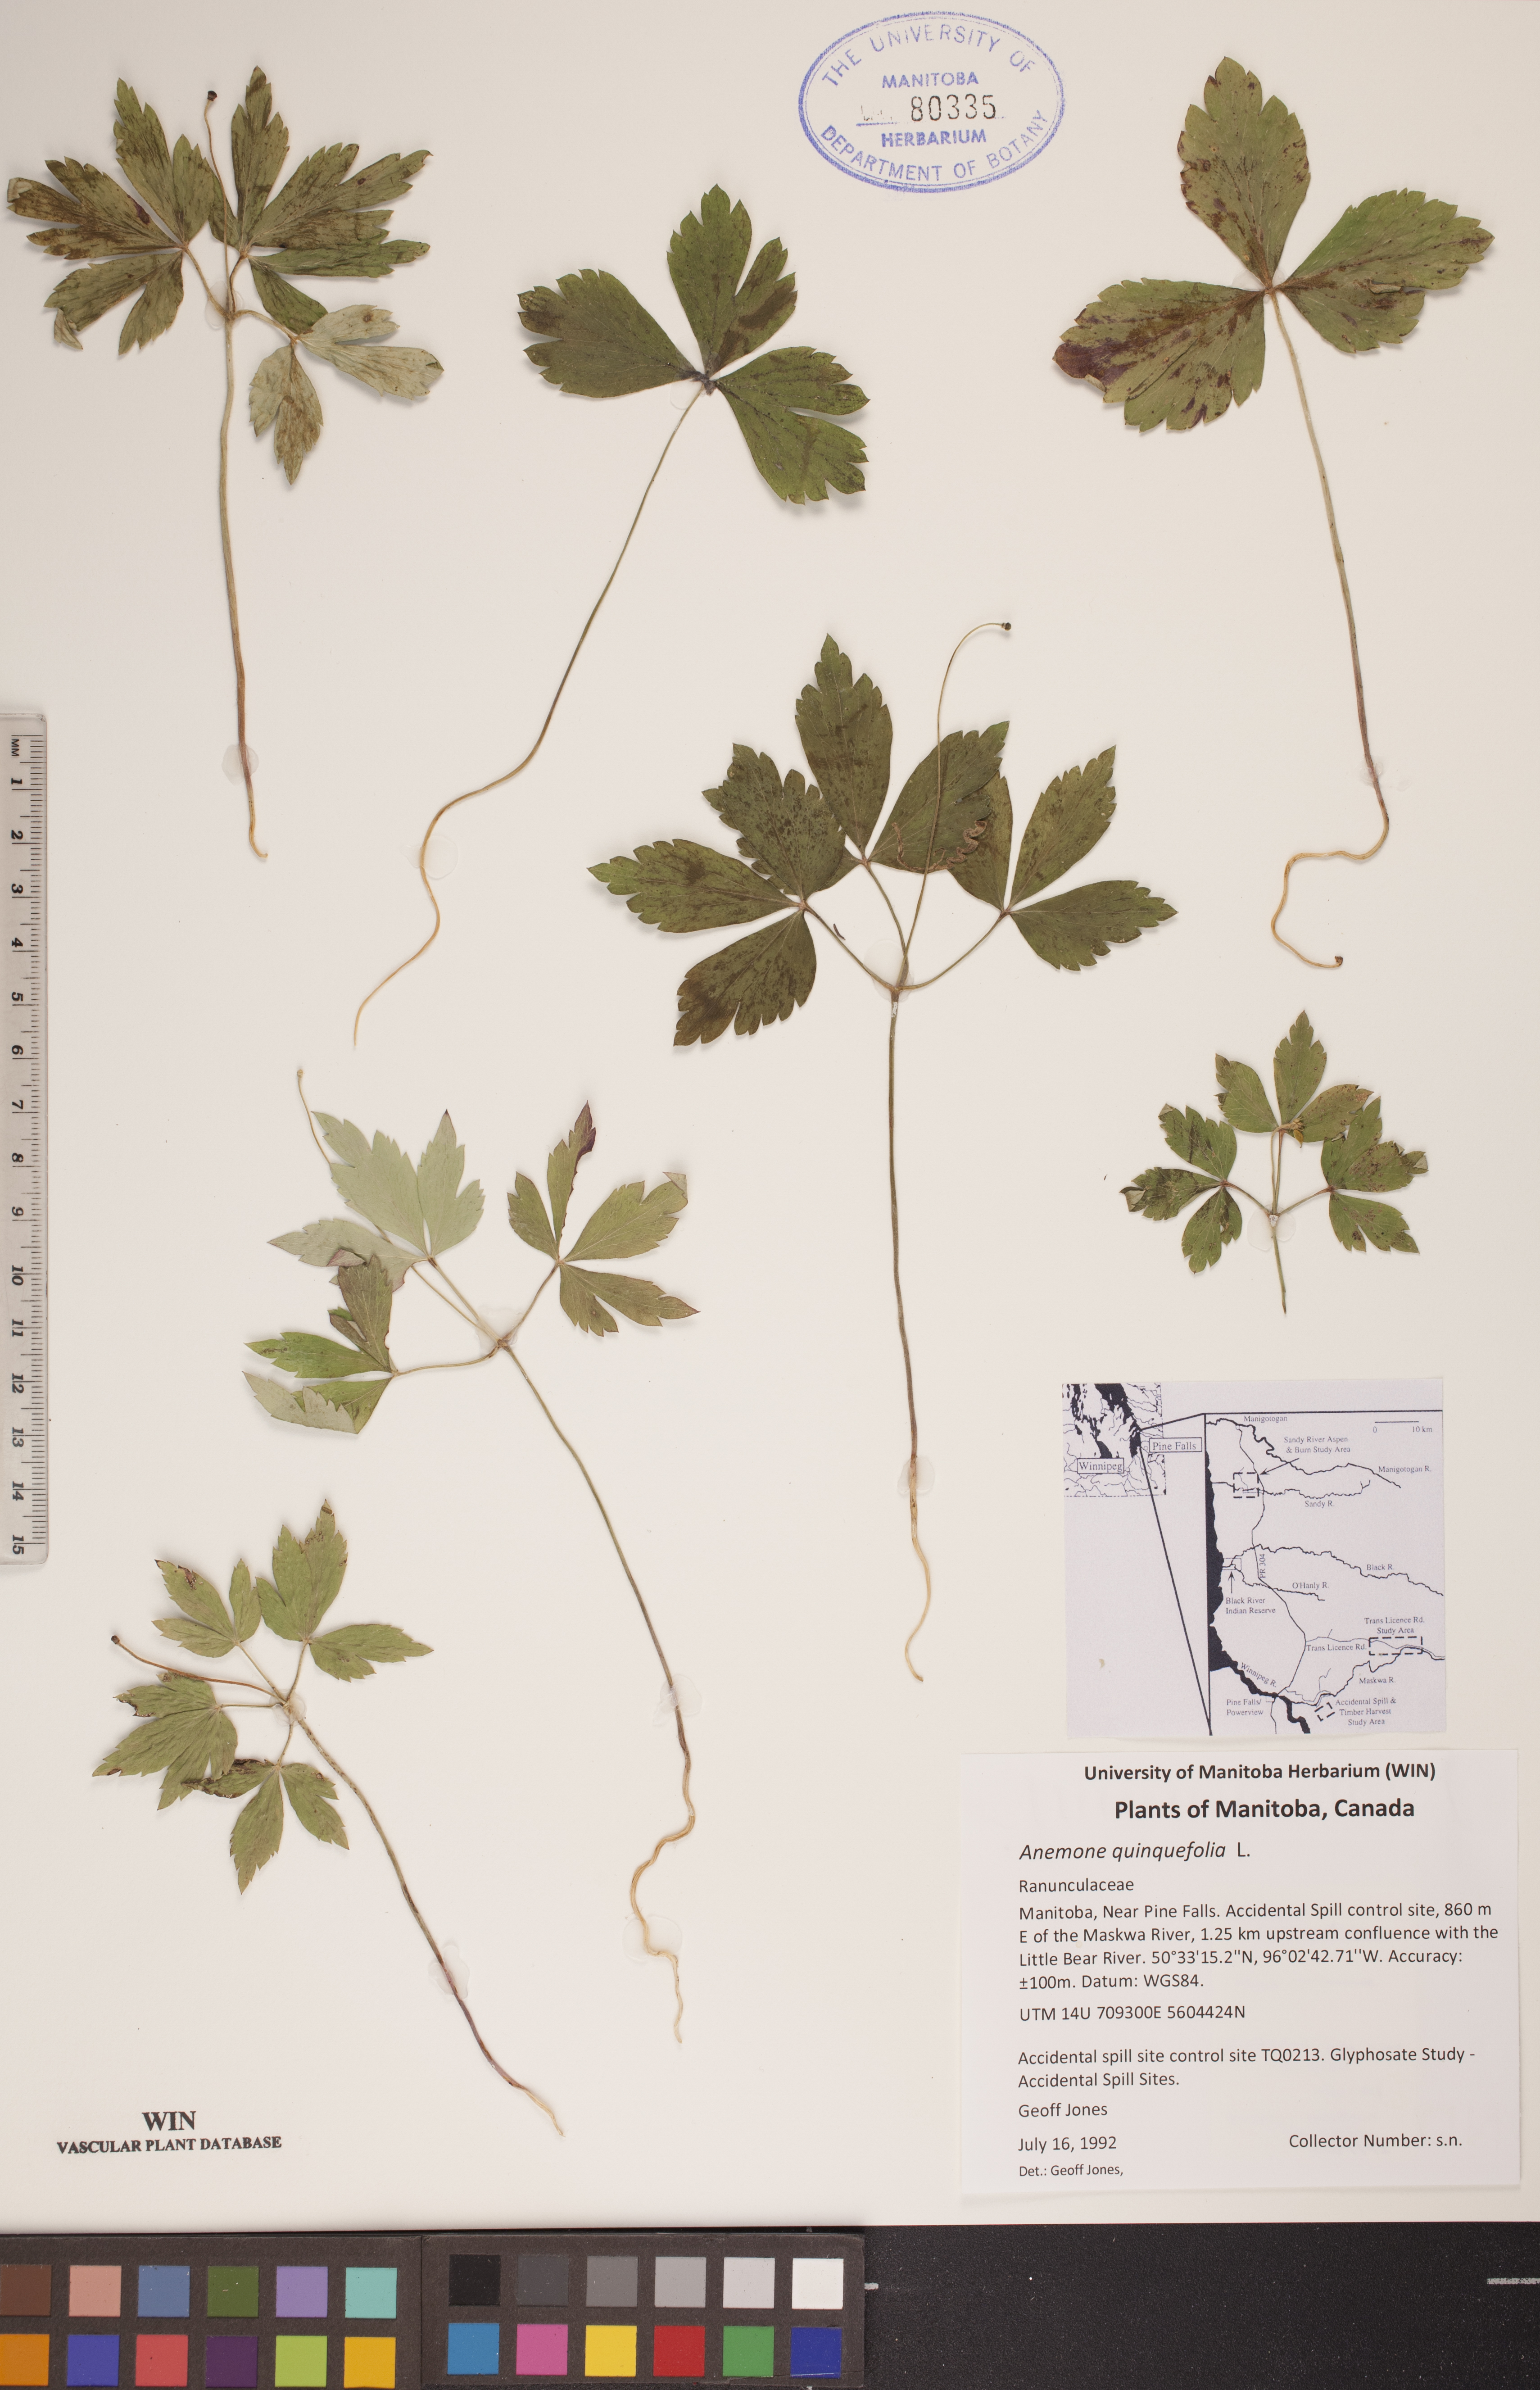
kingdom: Plantae
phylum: Tracheophyta
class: Magnoliopsida
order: Ranunculales
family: Ranunculaceae
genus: Anemone
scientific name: Anemone quinquefolia
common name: Wood anemone
